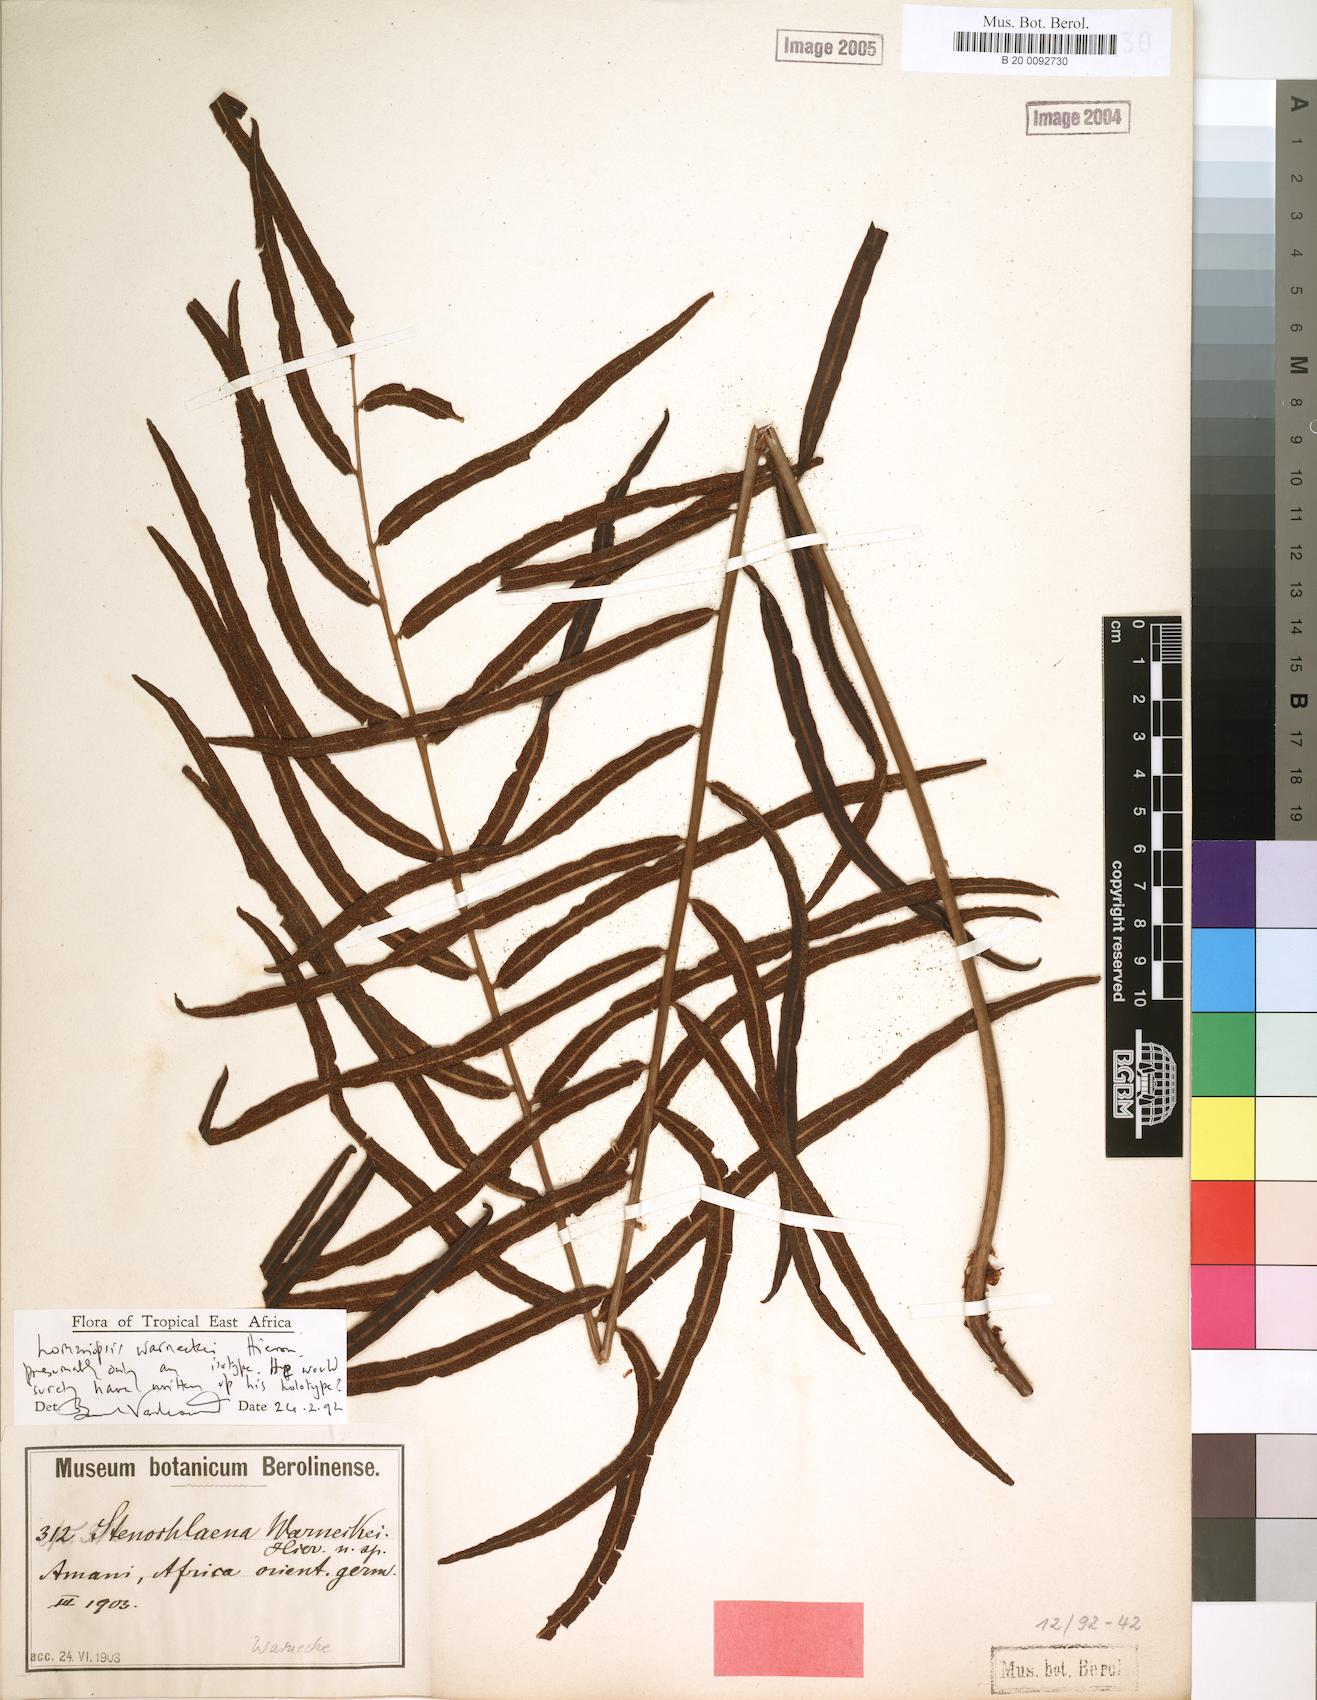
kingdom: Plantae
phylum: Tracheophyta
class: Polypodiopsida
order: Polypodiales
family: Lomariopsidaceae
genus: Lomariopsis
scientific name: Lomariopsis warneckei
